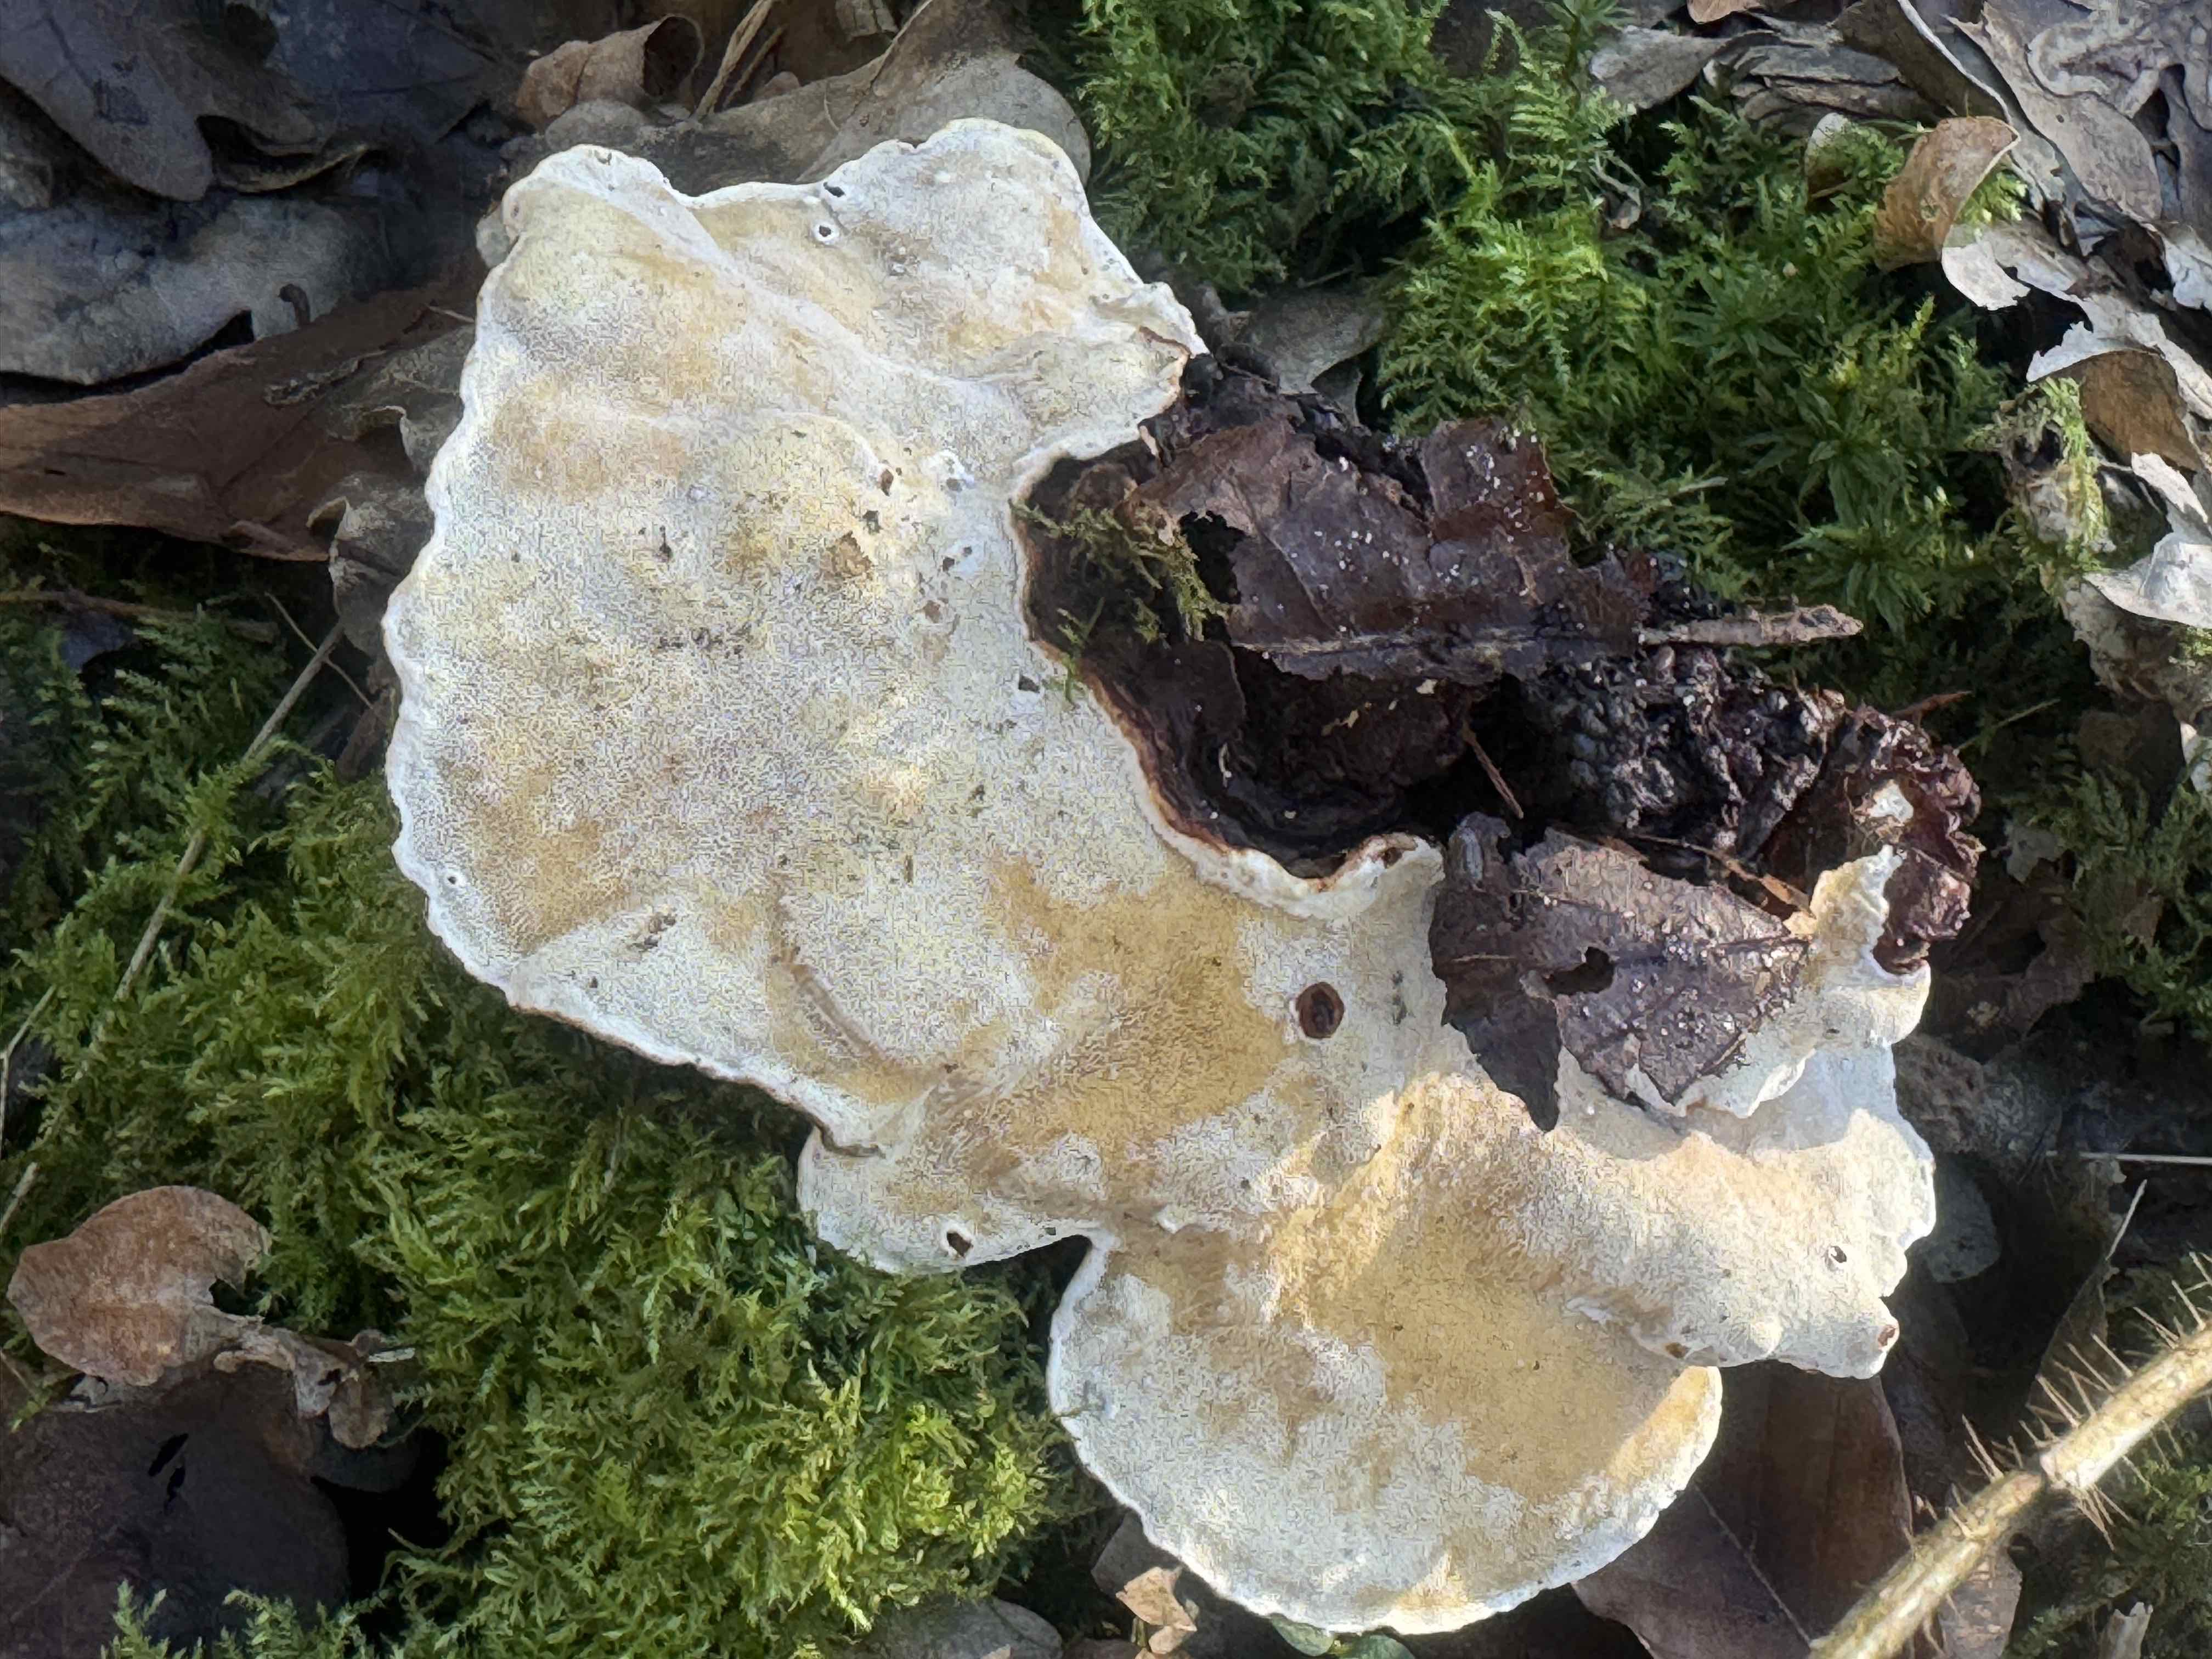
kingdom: Fungi
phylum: Basidiomycota
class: Agaricomycetes
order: Russulales
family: Bondarzewiaceae
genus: Heterobasidion
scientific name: Heterobasidion annosum
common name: almindelig rodfordærver
